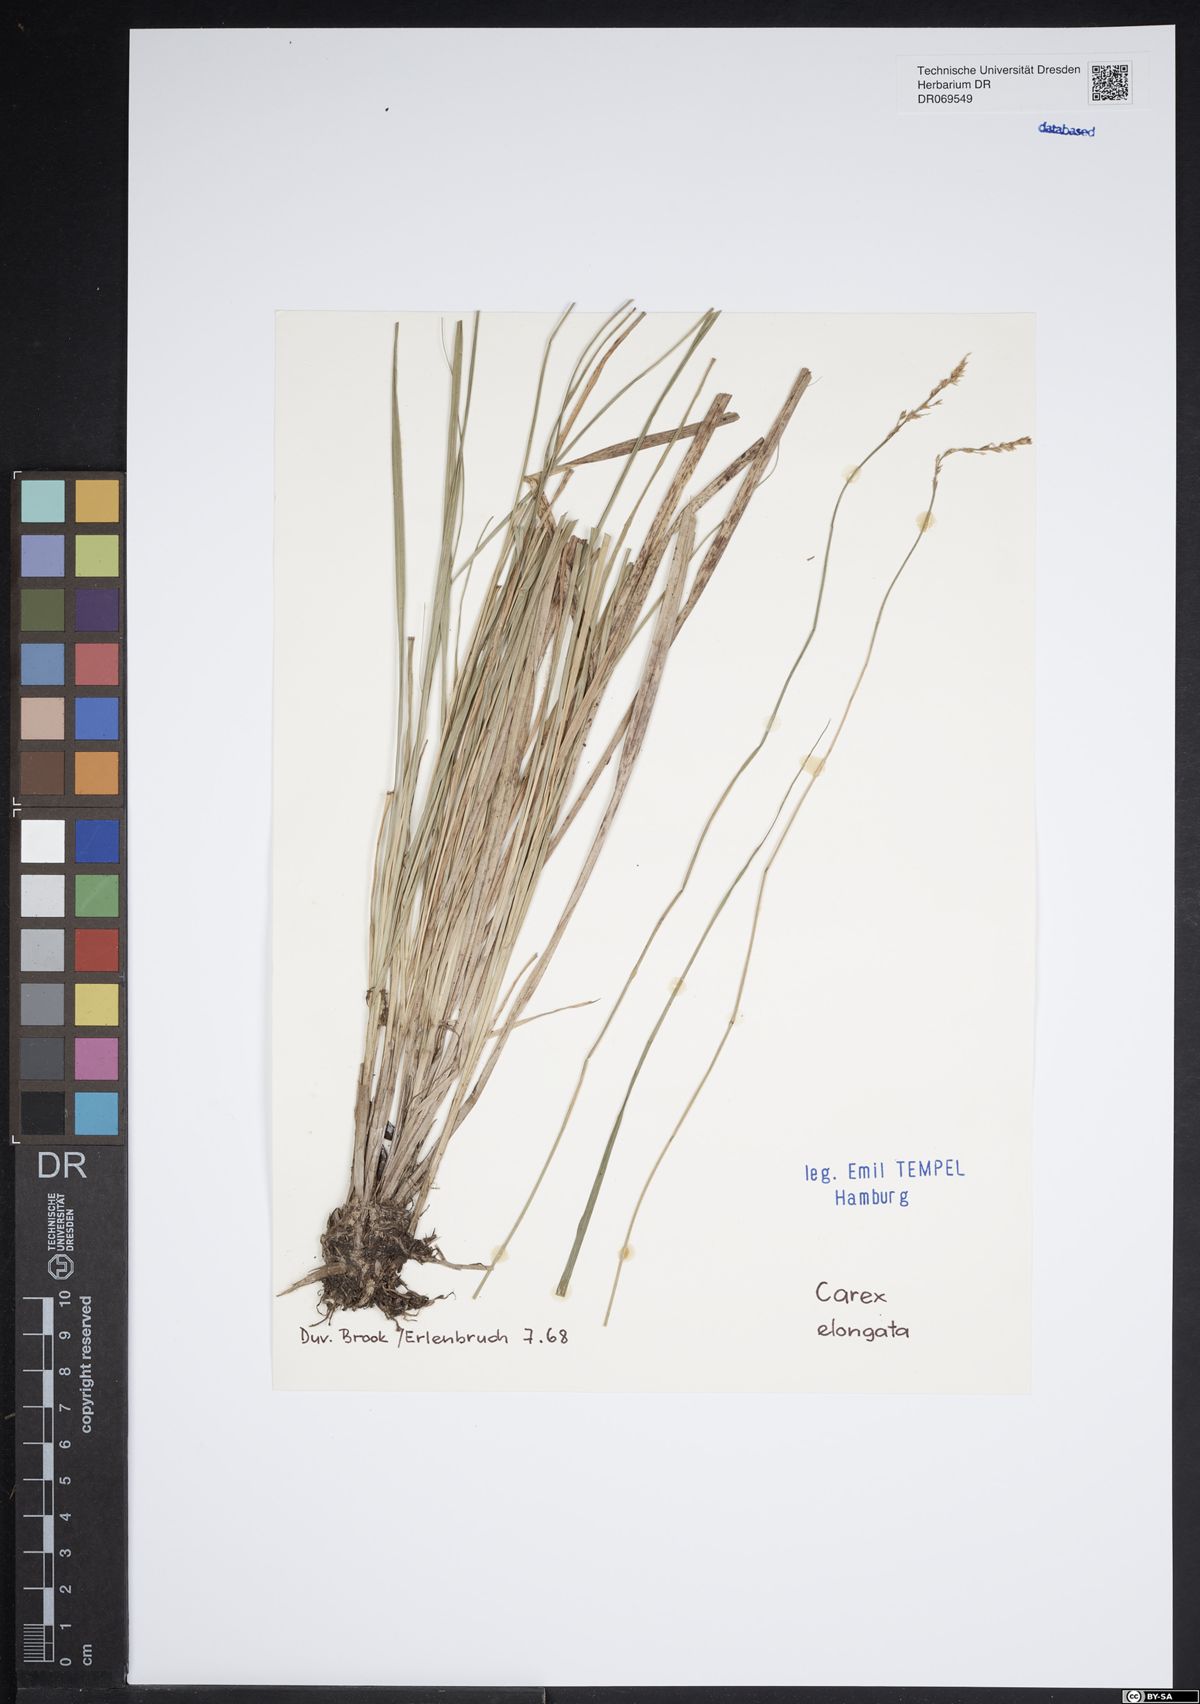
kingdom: Plantae
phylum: Tracheophyta
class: Liliopsida
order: Poales
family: Cyperaceae
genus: Carex
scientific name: Carex elongata
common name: Elongated sedge
